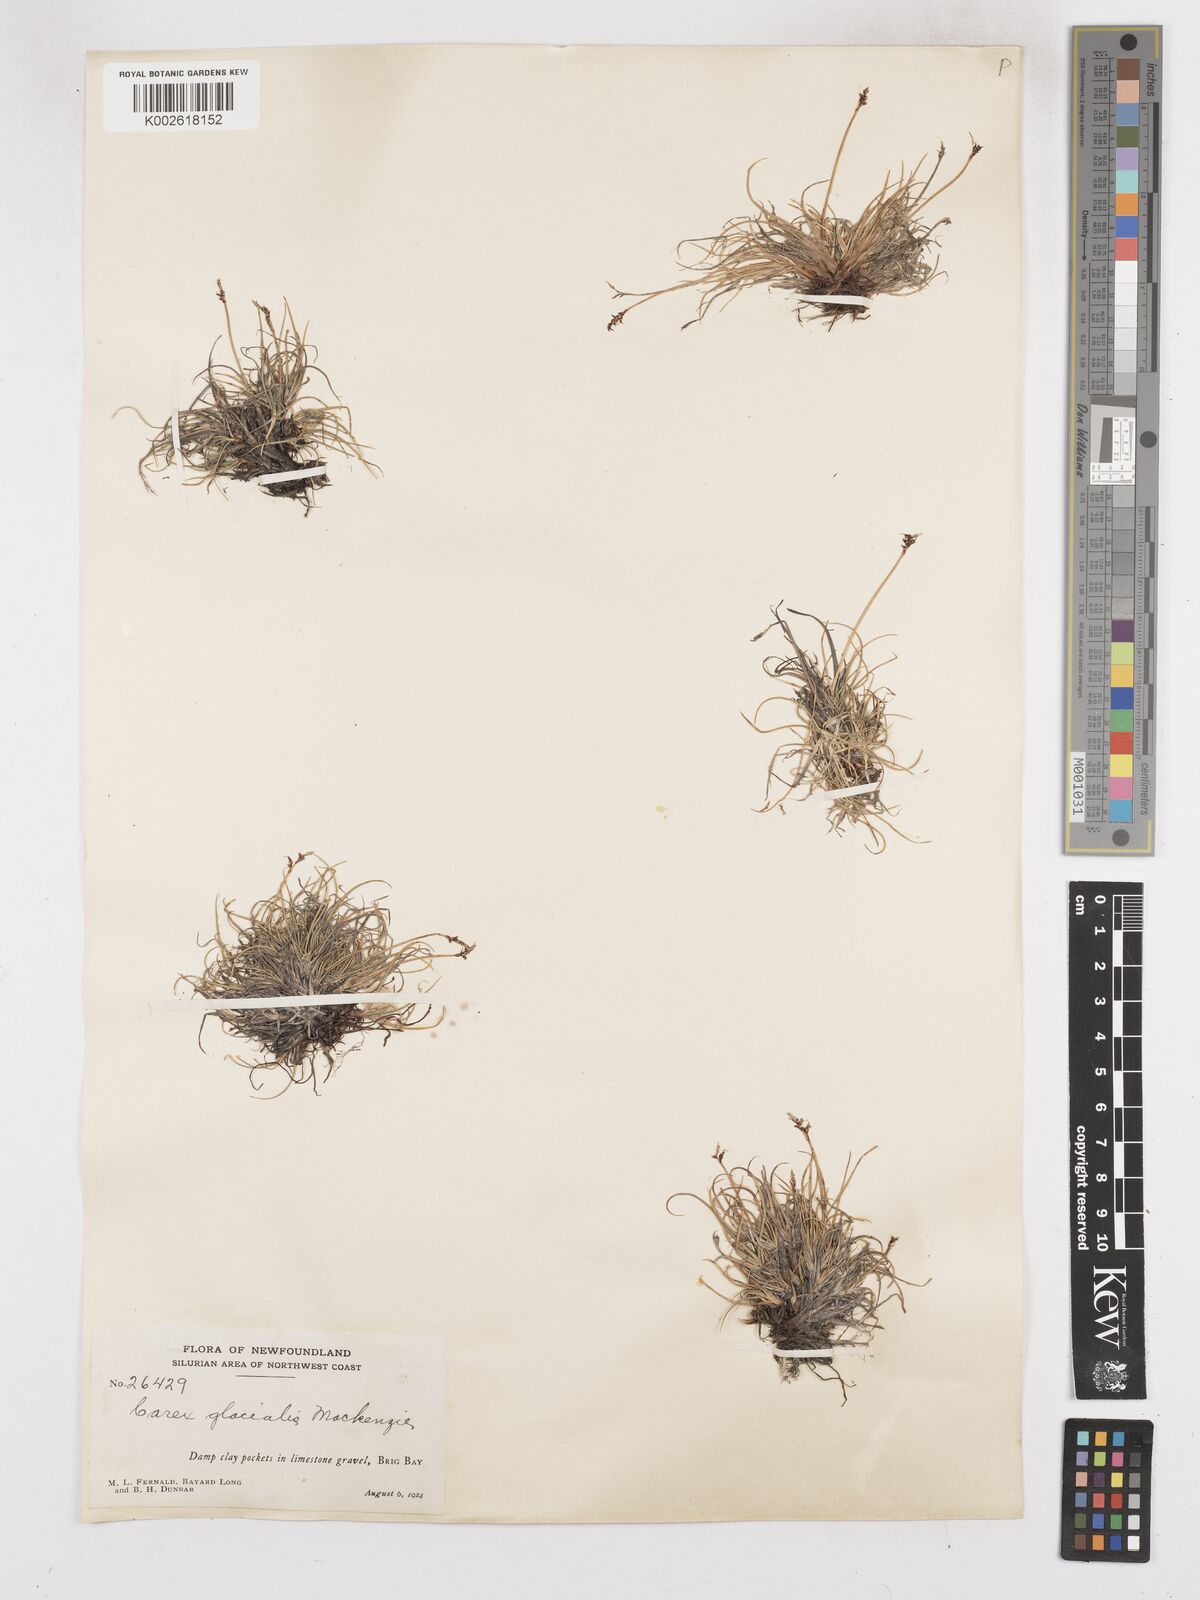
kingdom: Plantae
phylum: Tracheophyta
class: Liliopsida
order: Poales
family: Cyperaceae
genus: Carex
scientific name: Carex glacialis
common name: Newfoundland sedge
